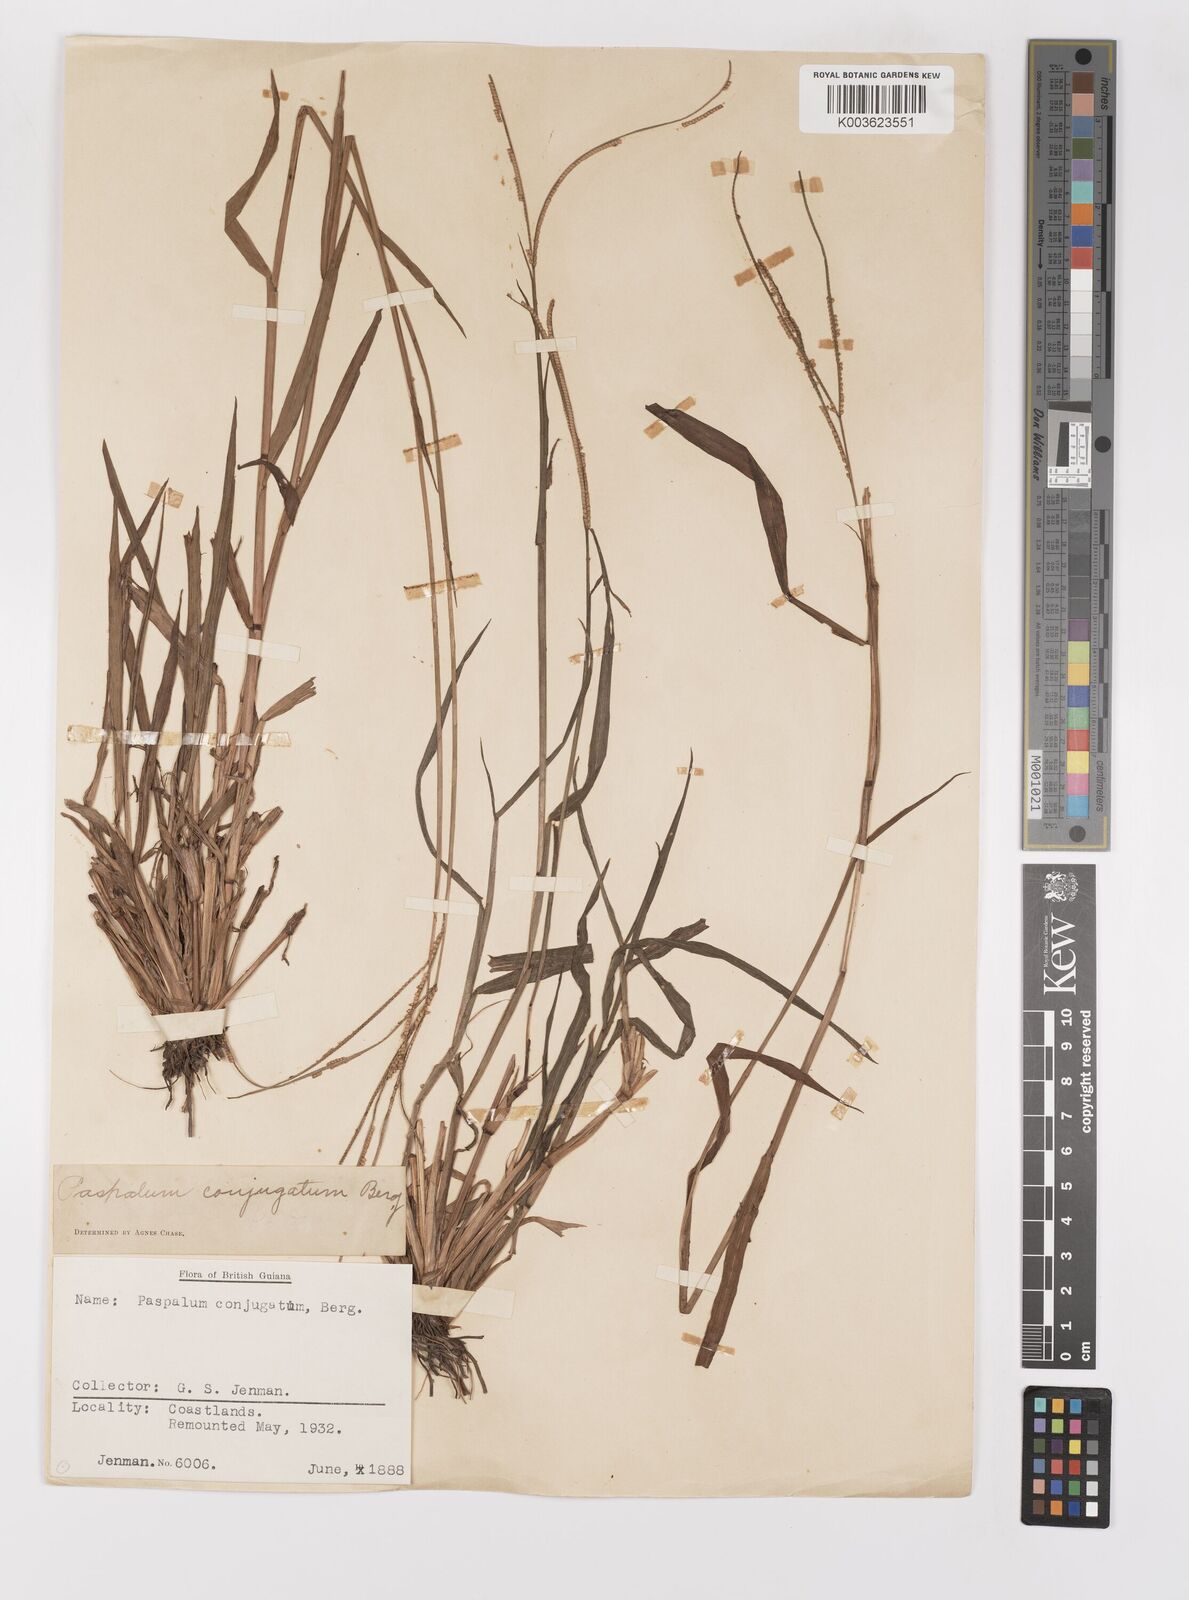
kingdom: Plantae
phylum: Tracheophyta
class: Liliopsida
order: Poales
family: Poaceae
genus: Paspalum
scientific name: Paspalum conjugatum
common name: Hilograss
